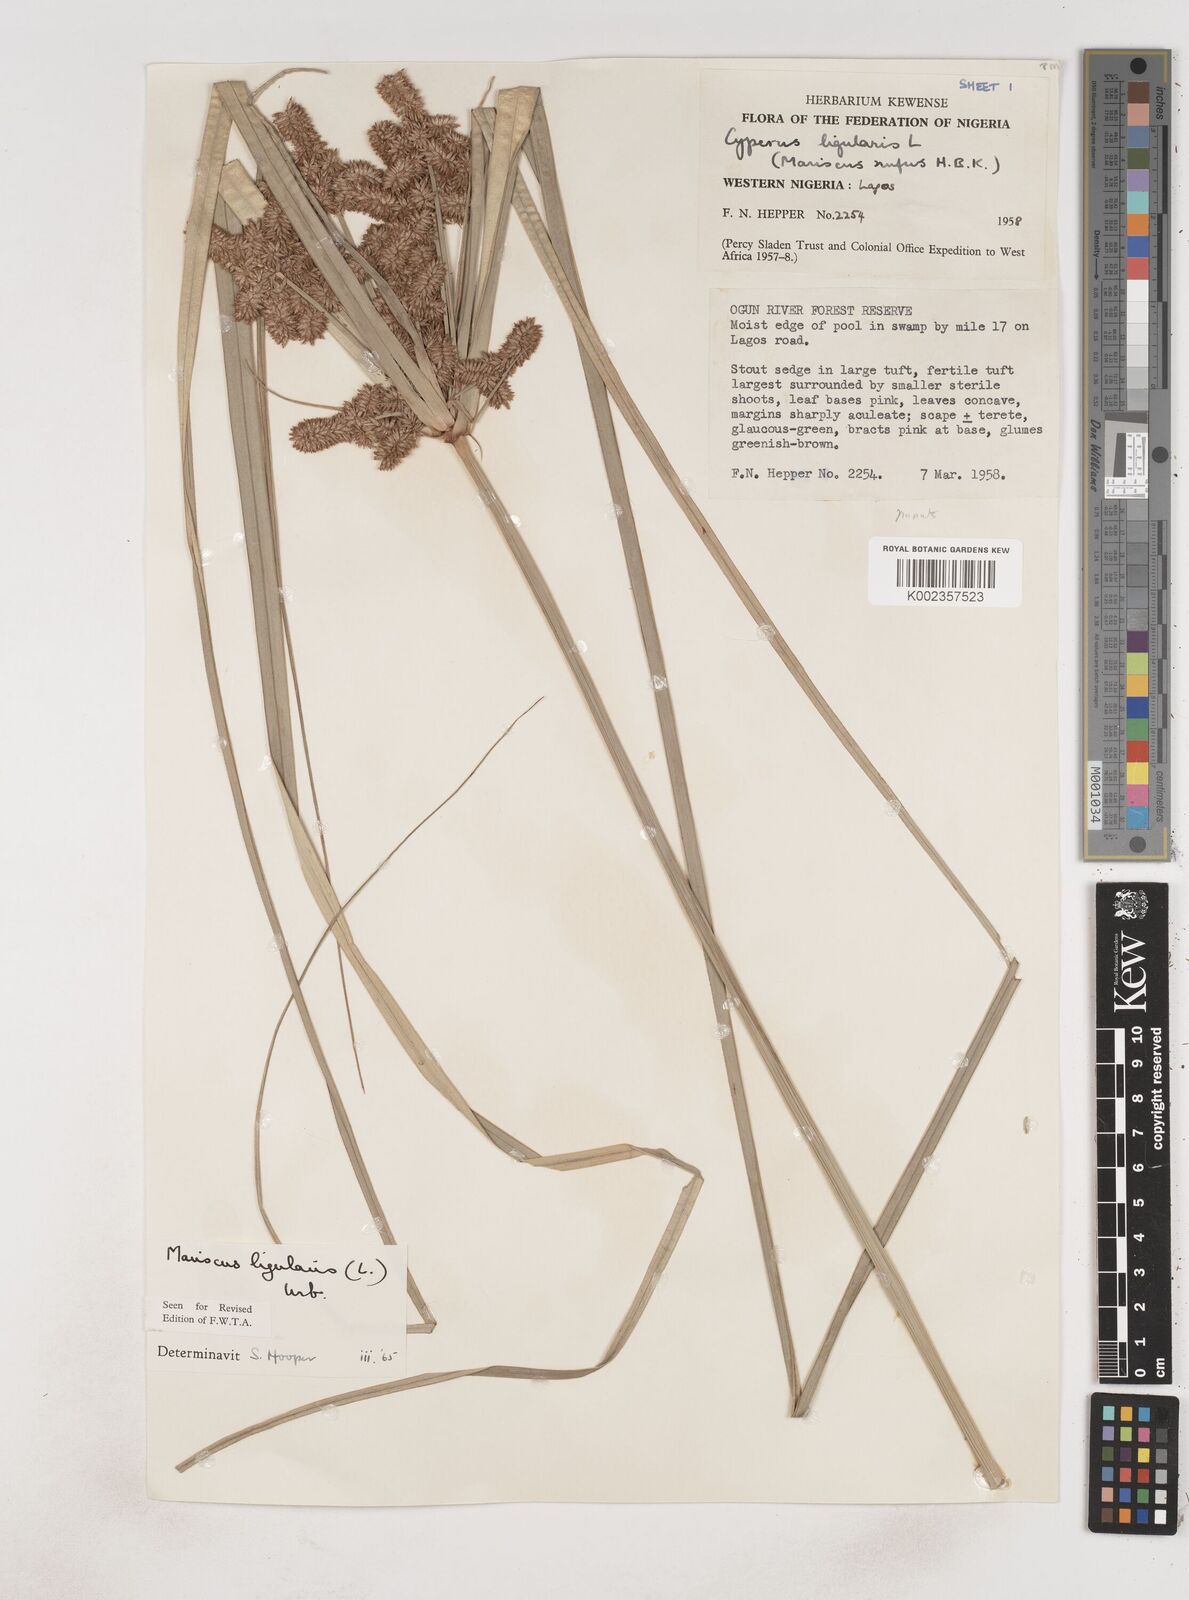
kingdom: Plantae
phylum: Tracheophyta
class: Liliopsida
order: Poales
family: Cyperaceae
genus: Cyperus
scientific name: Cyperus ligularis
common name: Swamp flat sedge
